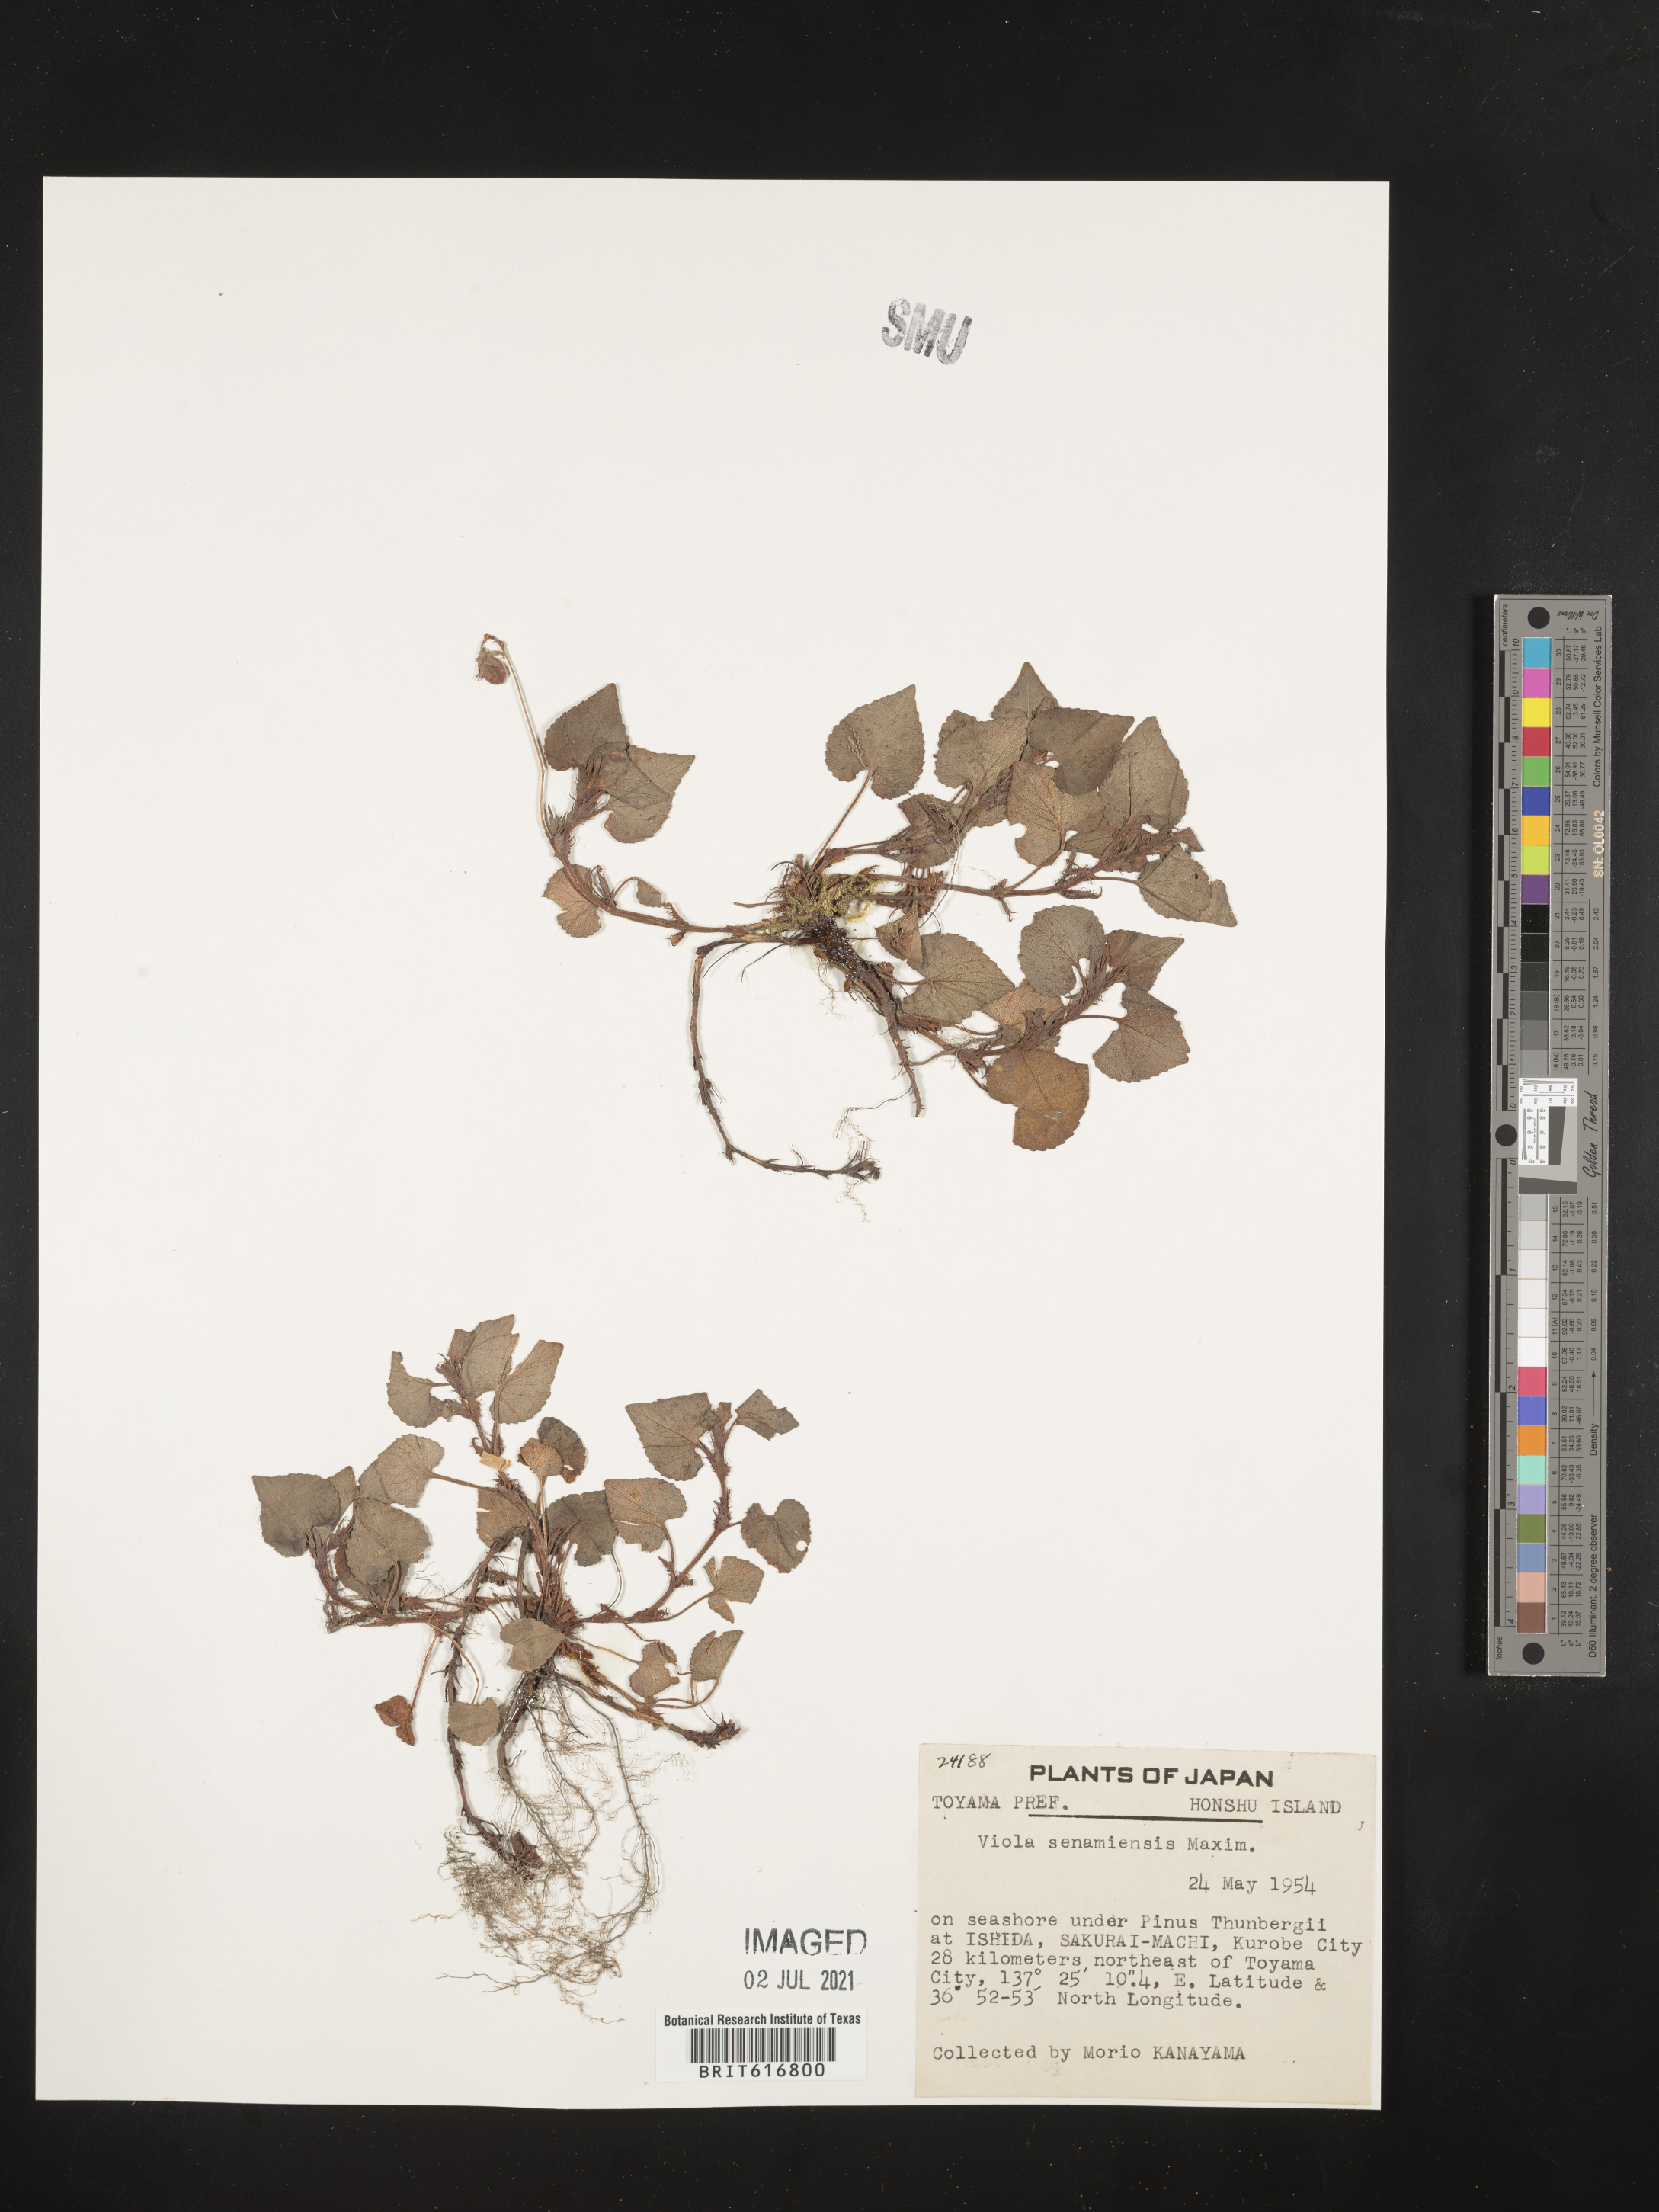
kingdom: Plantae
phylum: Tracheophyta
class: Magnoliopsida
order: Malpighiales
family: Violaceae
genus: Viola
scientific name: Viola grayi
